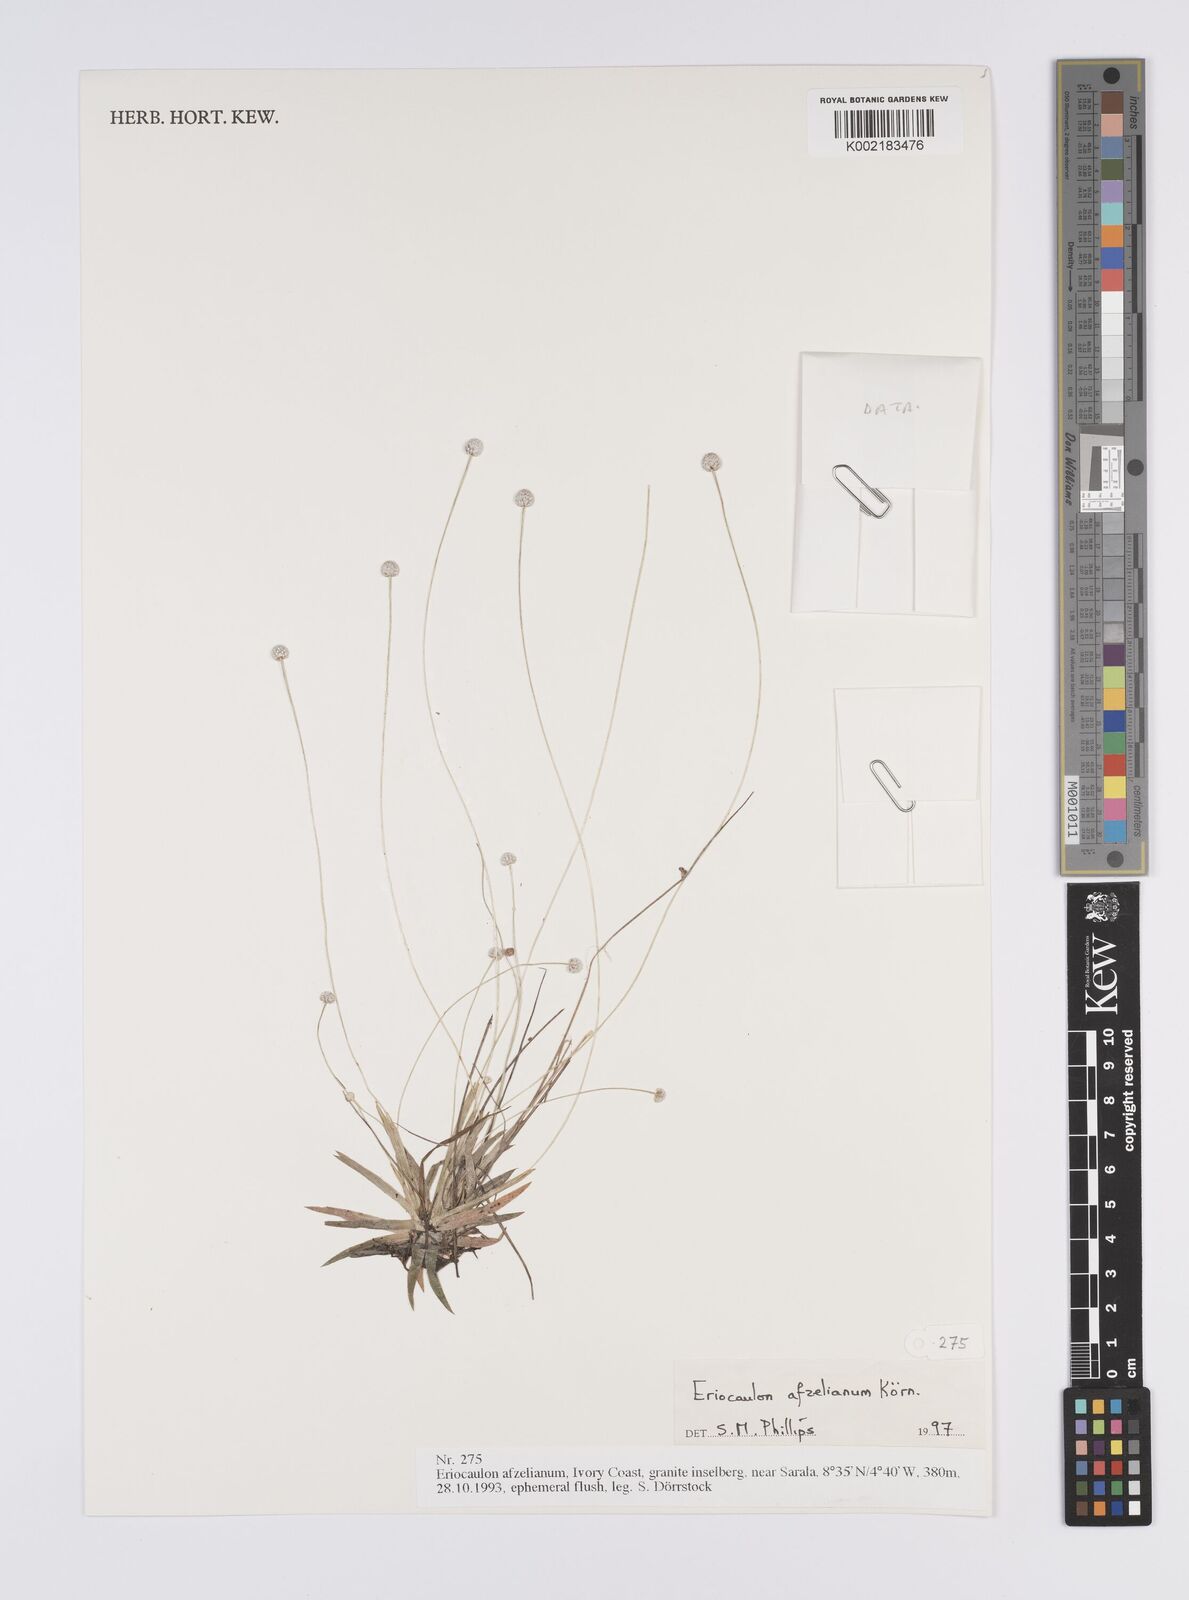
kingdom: Plantae
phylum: Tracheophyta
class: Liliopsida
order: Poales
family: Eriocaulaceae
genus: Eriocaulon
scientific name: Eriocaulon afzelianum
